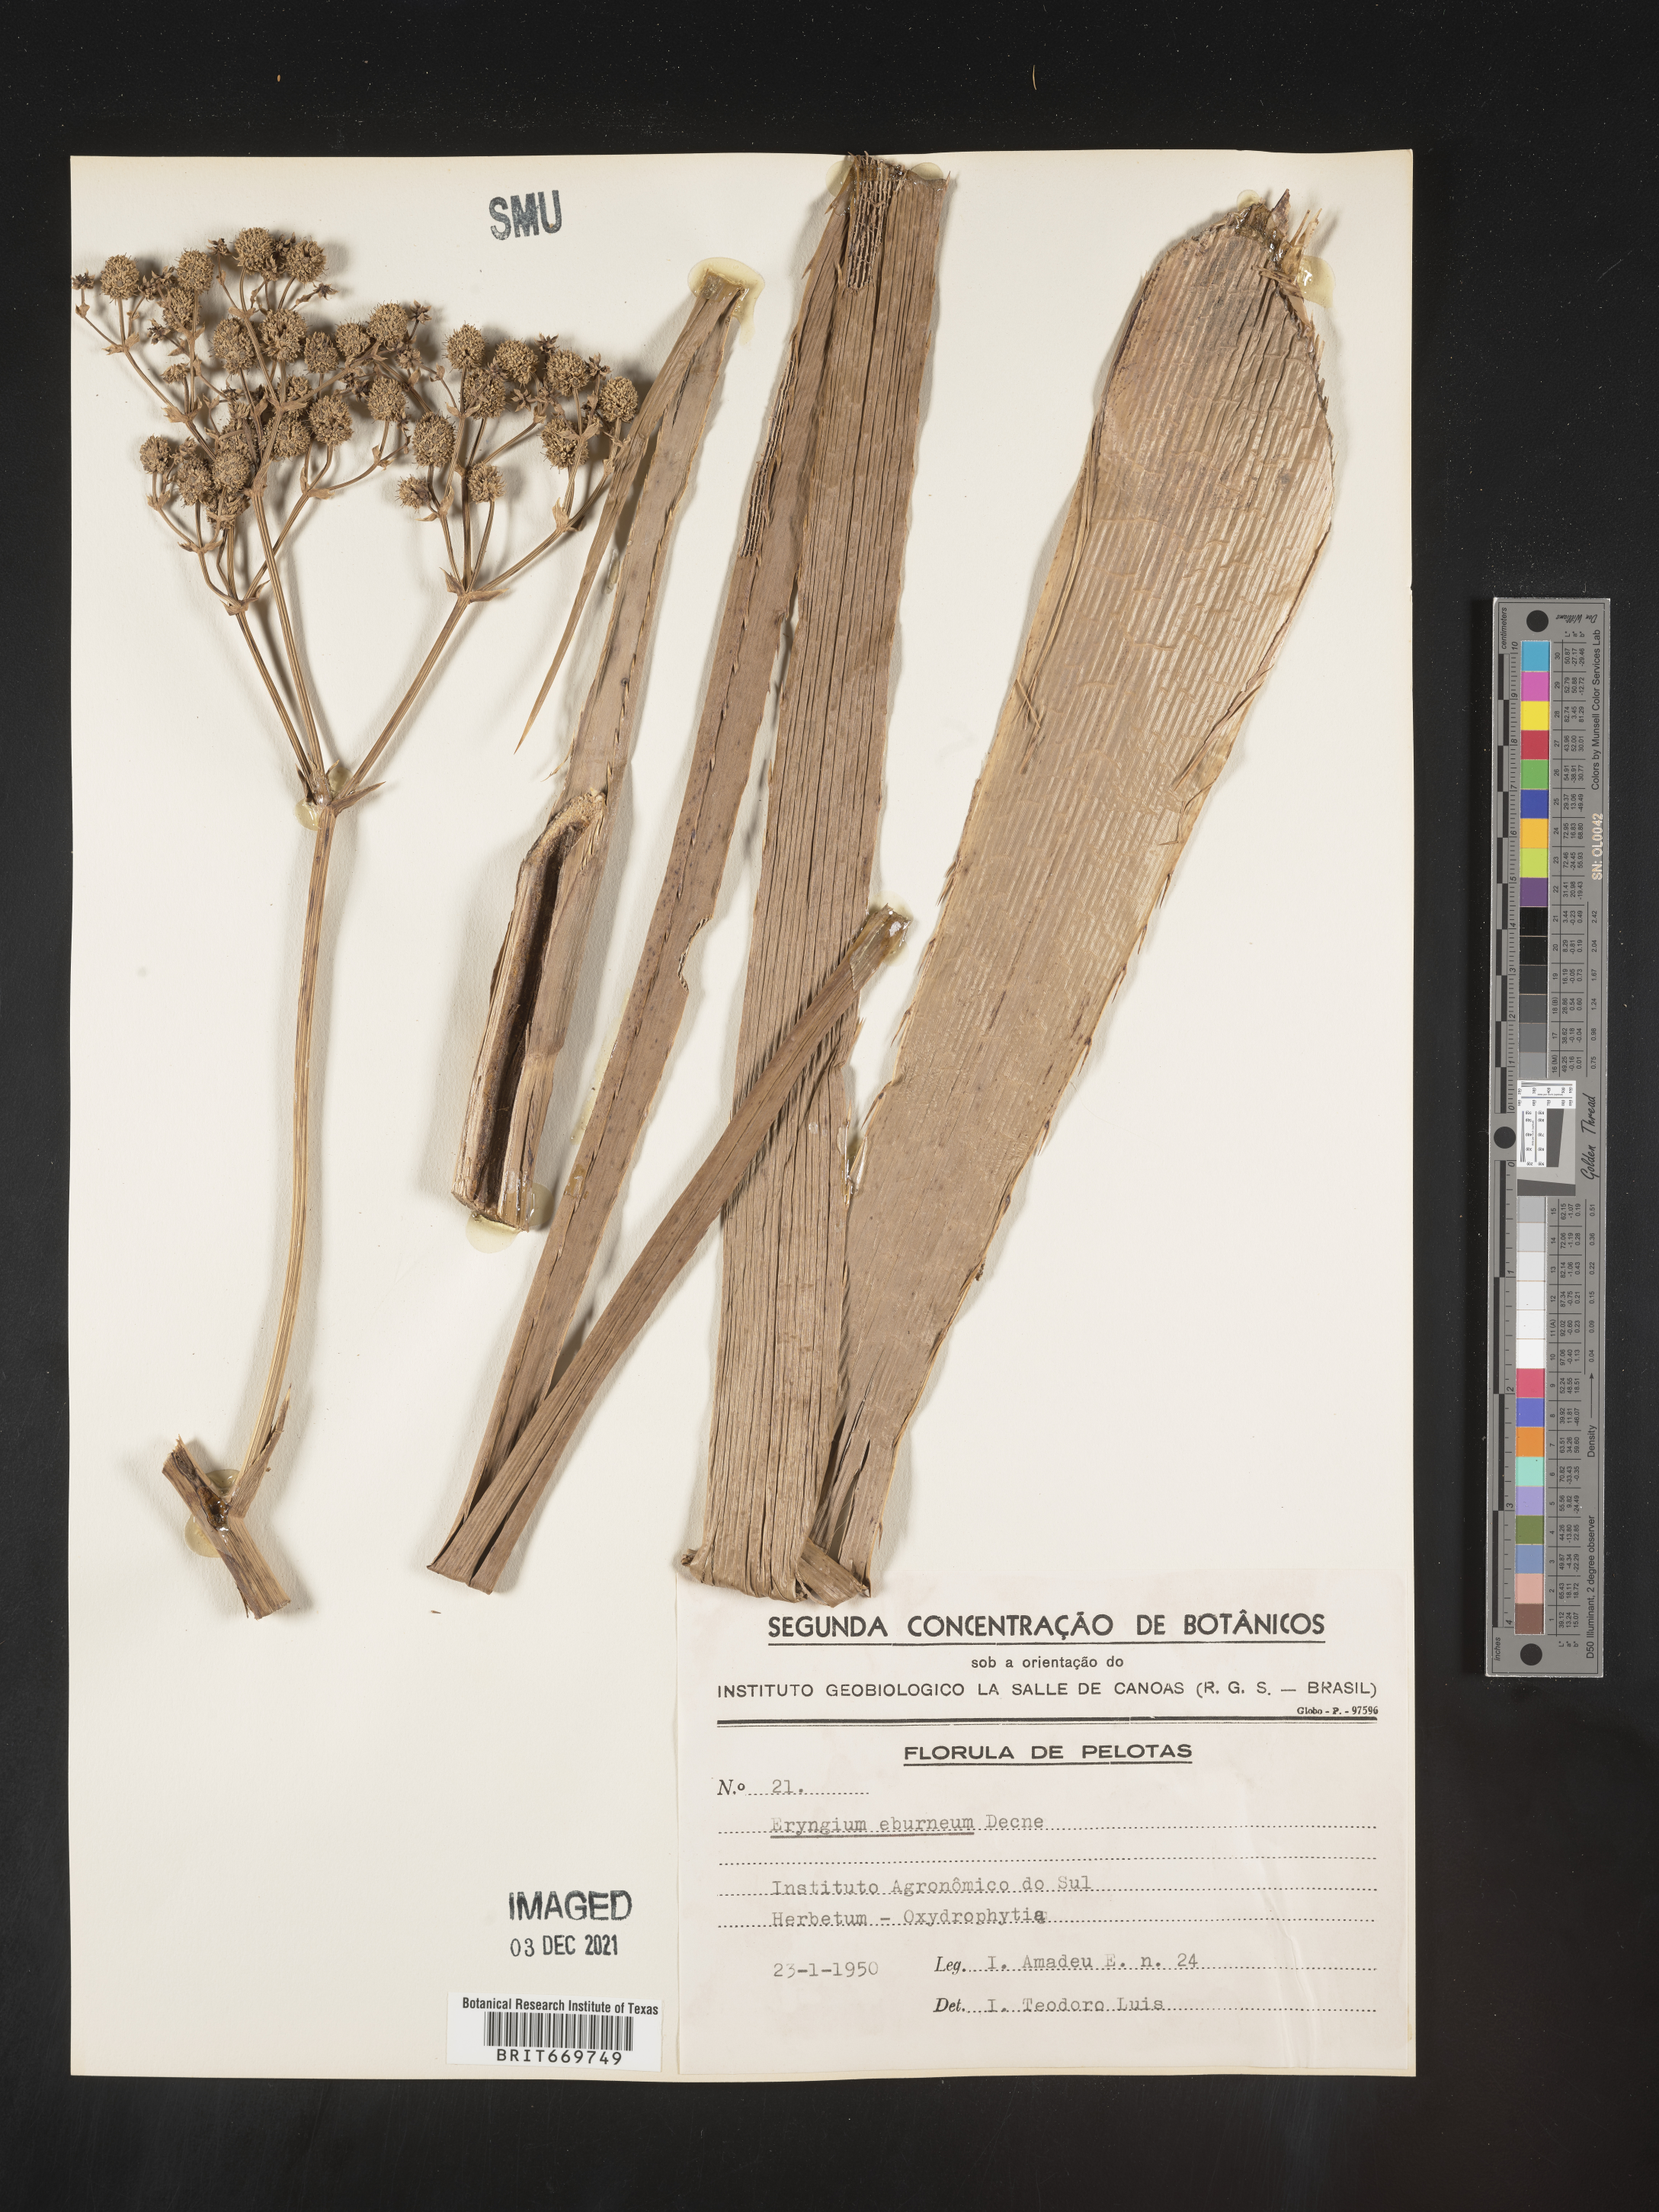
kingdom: Plantae
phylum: Tracheophyta
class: Magnoliopsida
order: Apiales
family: Apiaceae
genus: Eryngium
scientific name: Eryngium
